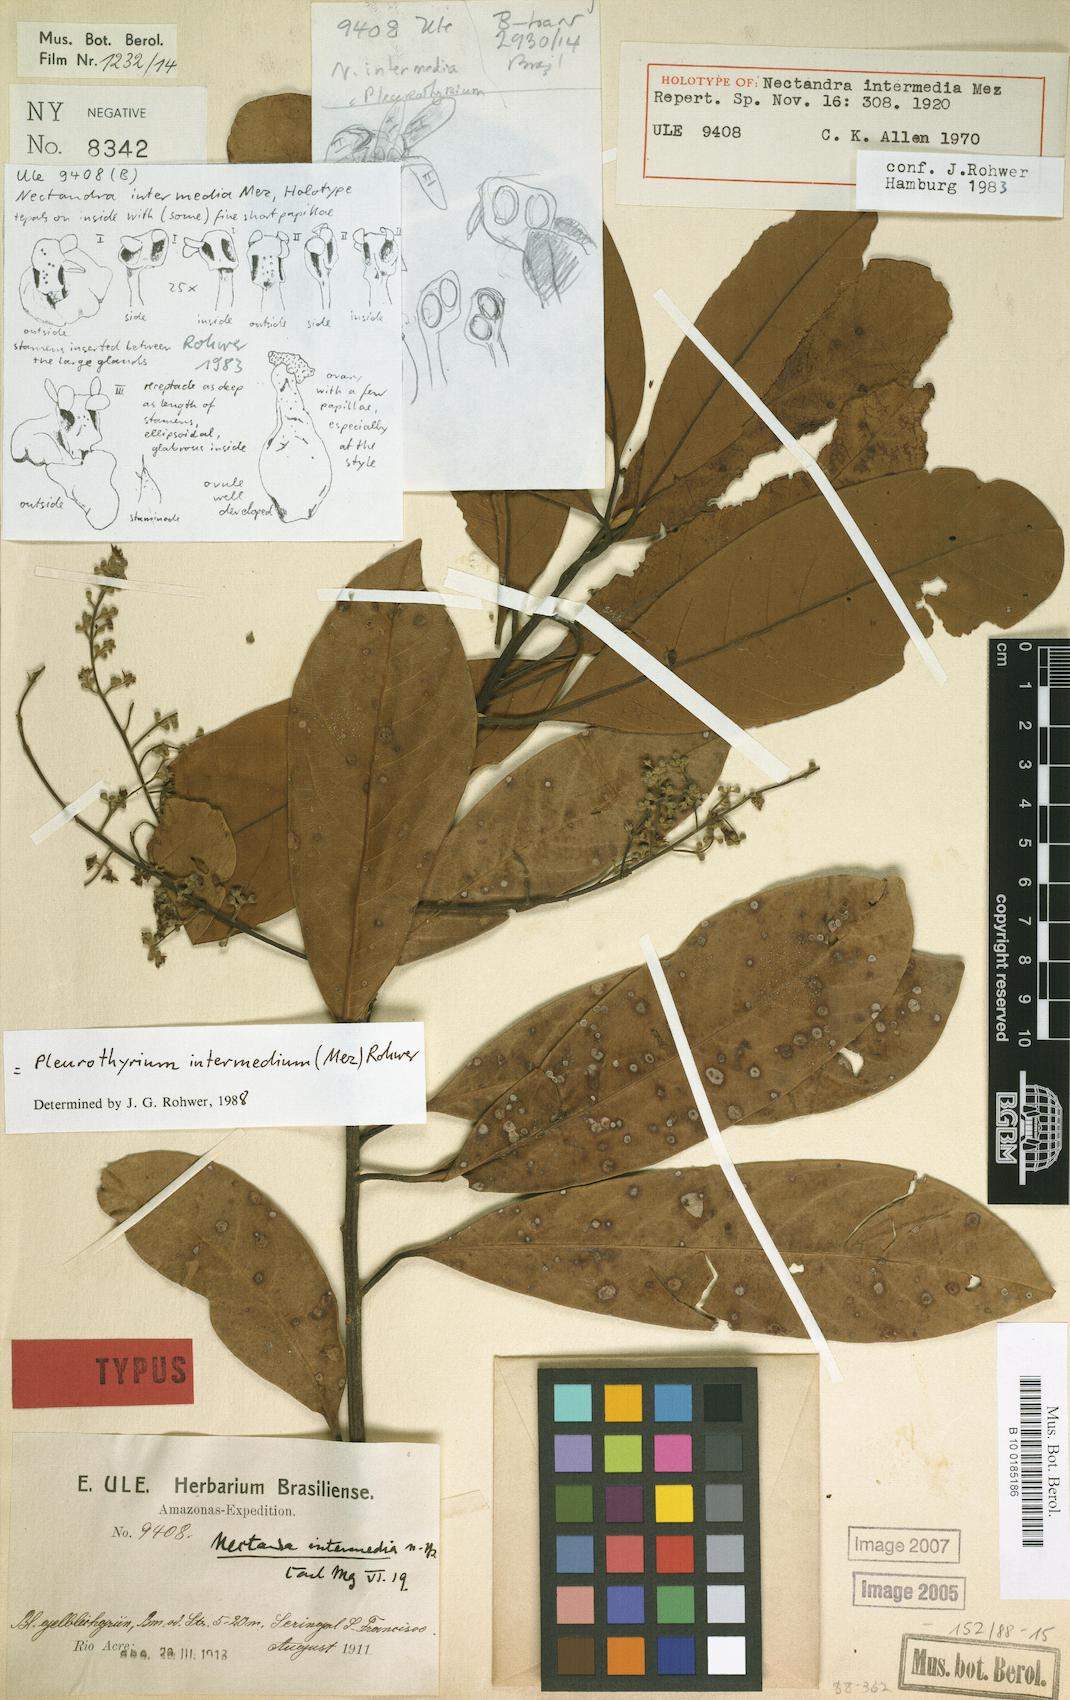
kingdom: Plantae
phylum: Tracheophyta
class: Magnoliopsida
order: Laurales
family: Lauraceae
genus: Pleurothyrium
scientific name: Pleurothyrium intermedium
